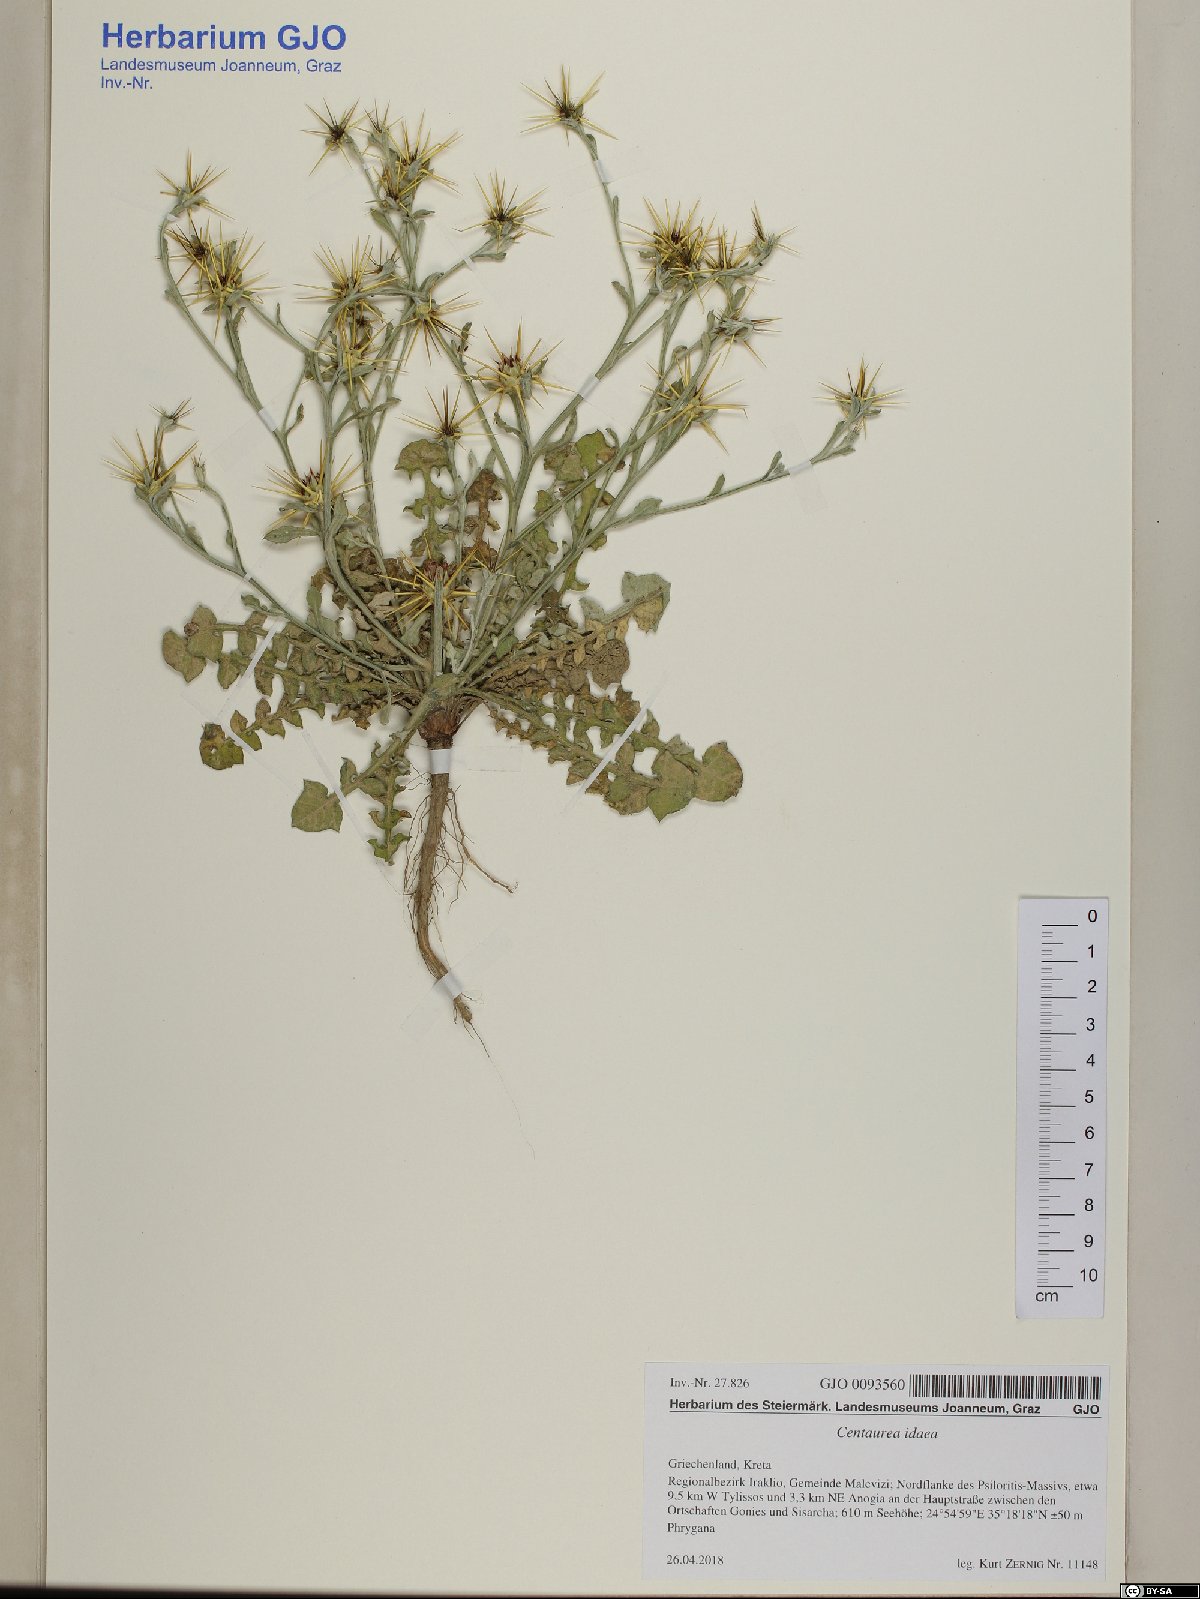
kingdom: Plantae
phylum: Tracheophyta
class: Magnoliopsida
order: Asterales
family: Asteraceae
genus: Centaurea
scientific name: Centaurea idaea
